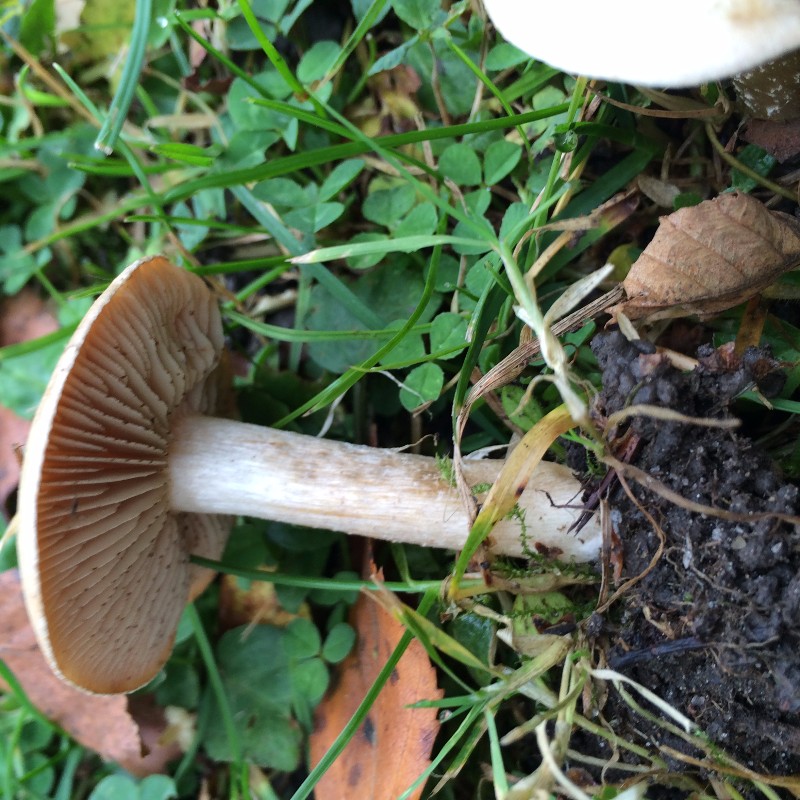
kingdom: Fungi
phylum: Basidiomycota
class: Agaricomycetes
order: Agaricales
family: Hymenogastraceae
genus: Hebeloma
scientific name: Hebeloma crustuliniforme
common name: almindelig tåreblad
